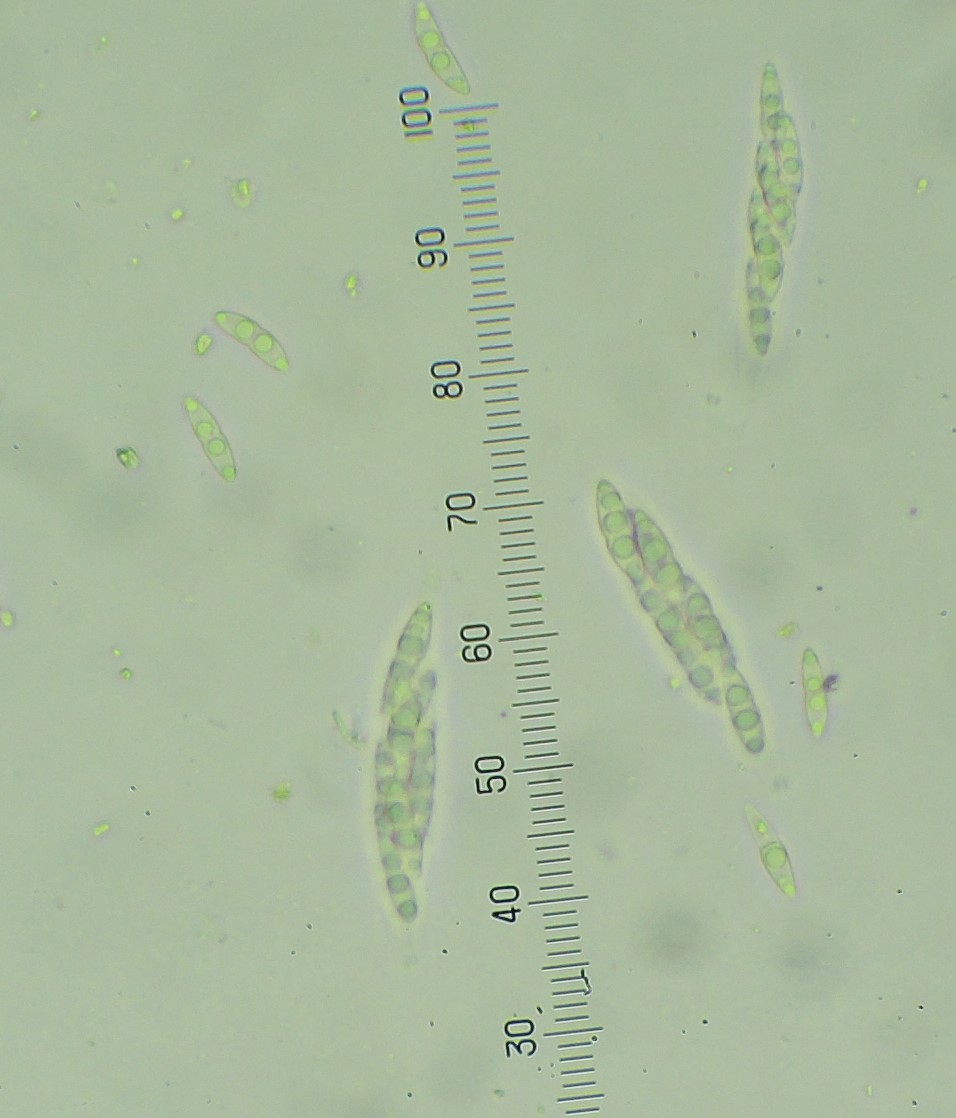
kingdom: Fungi
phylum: Ascomycota
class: Sordariomycetes
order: Diaporthales
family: Diaporthaceae
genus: Diaporthe
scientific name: Diaporthe strumella
